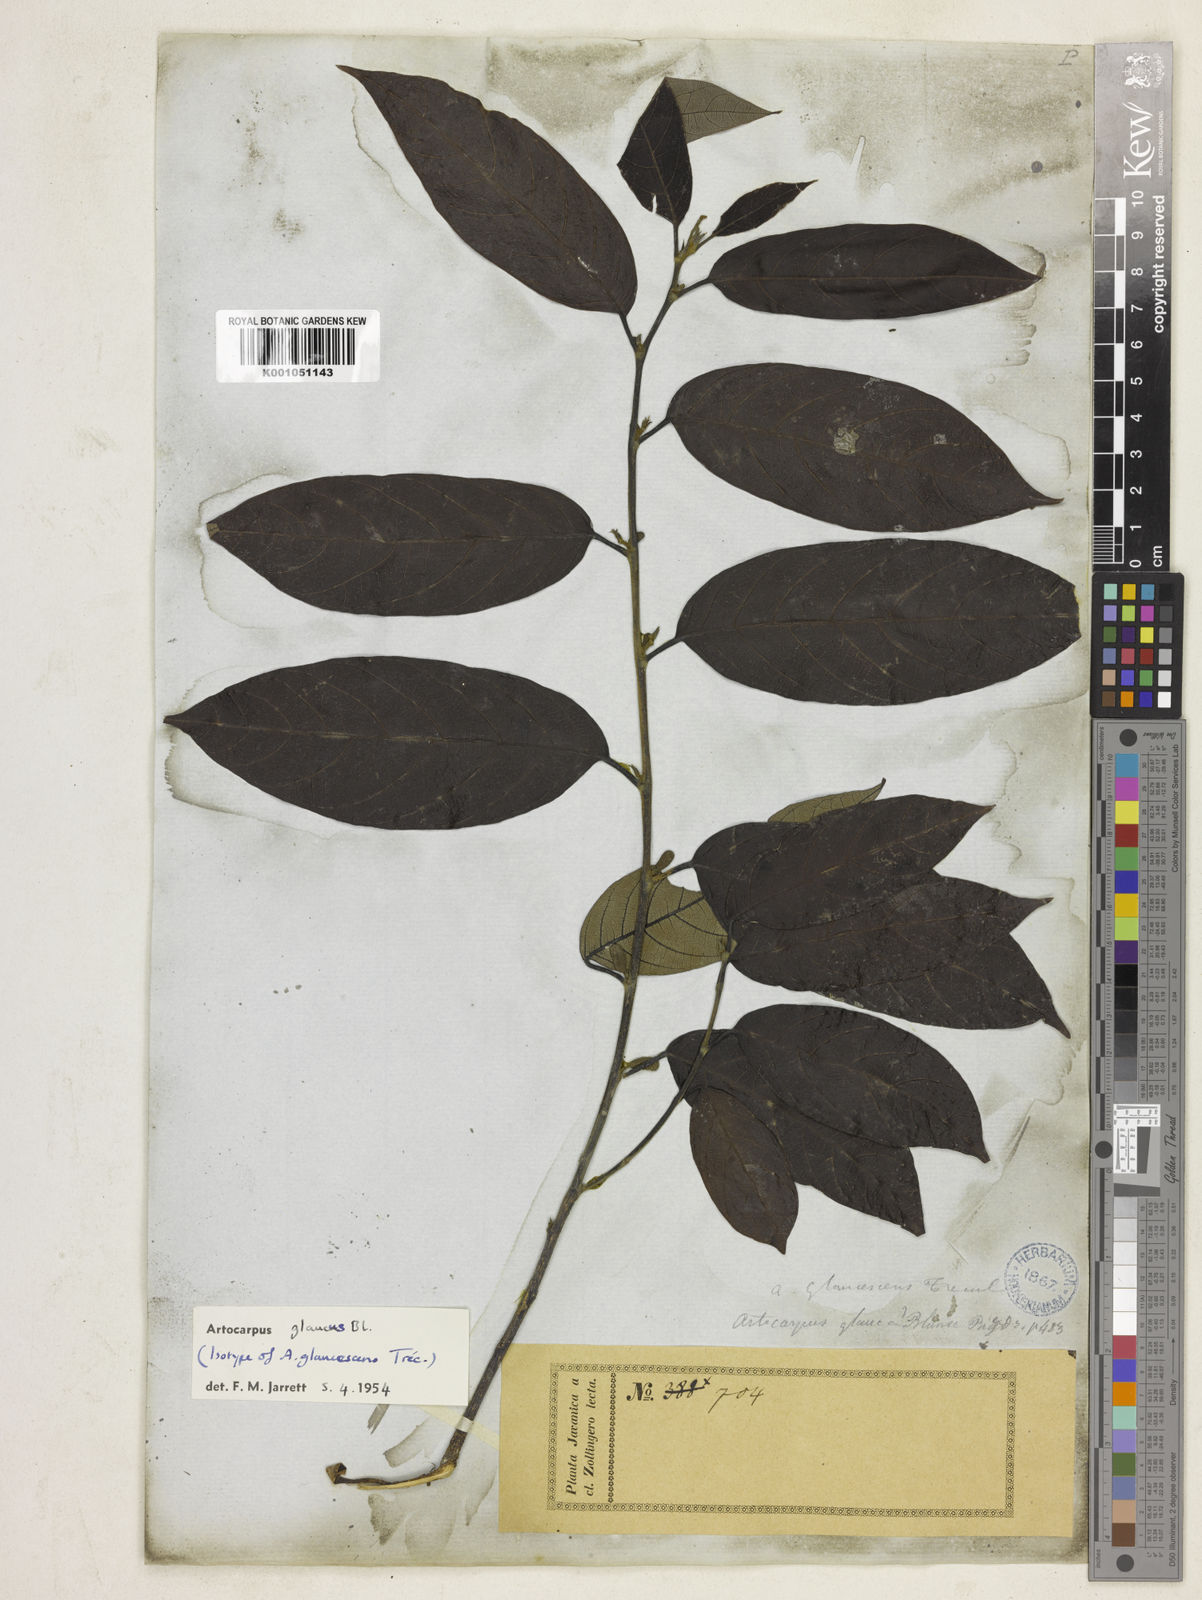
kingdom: Plantae
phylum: Tracheophyta
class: Magnoliopsida
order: Rosales
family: Moraceae
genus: Artocarpus
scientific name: Artocarpus glaucus
